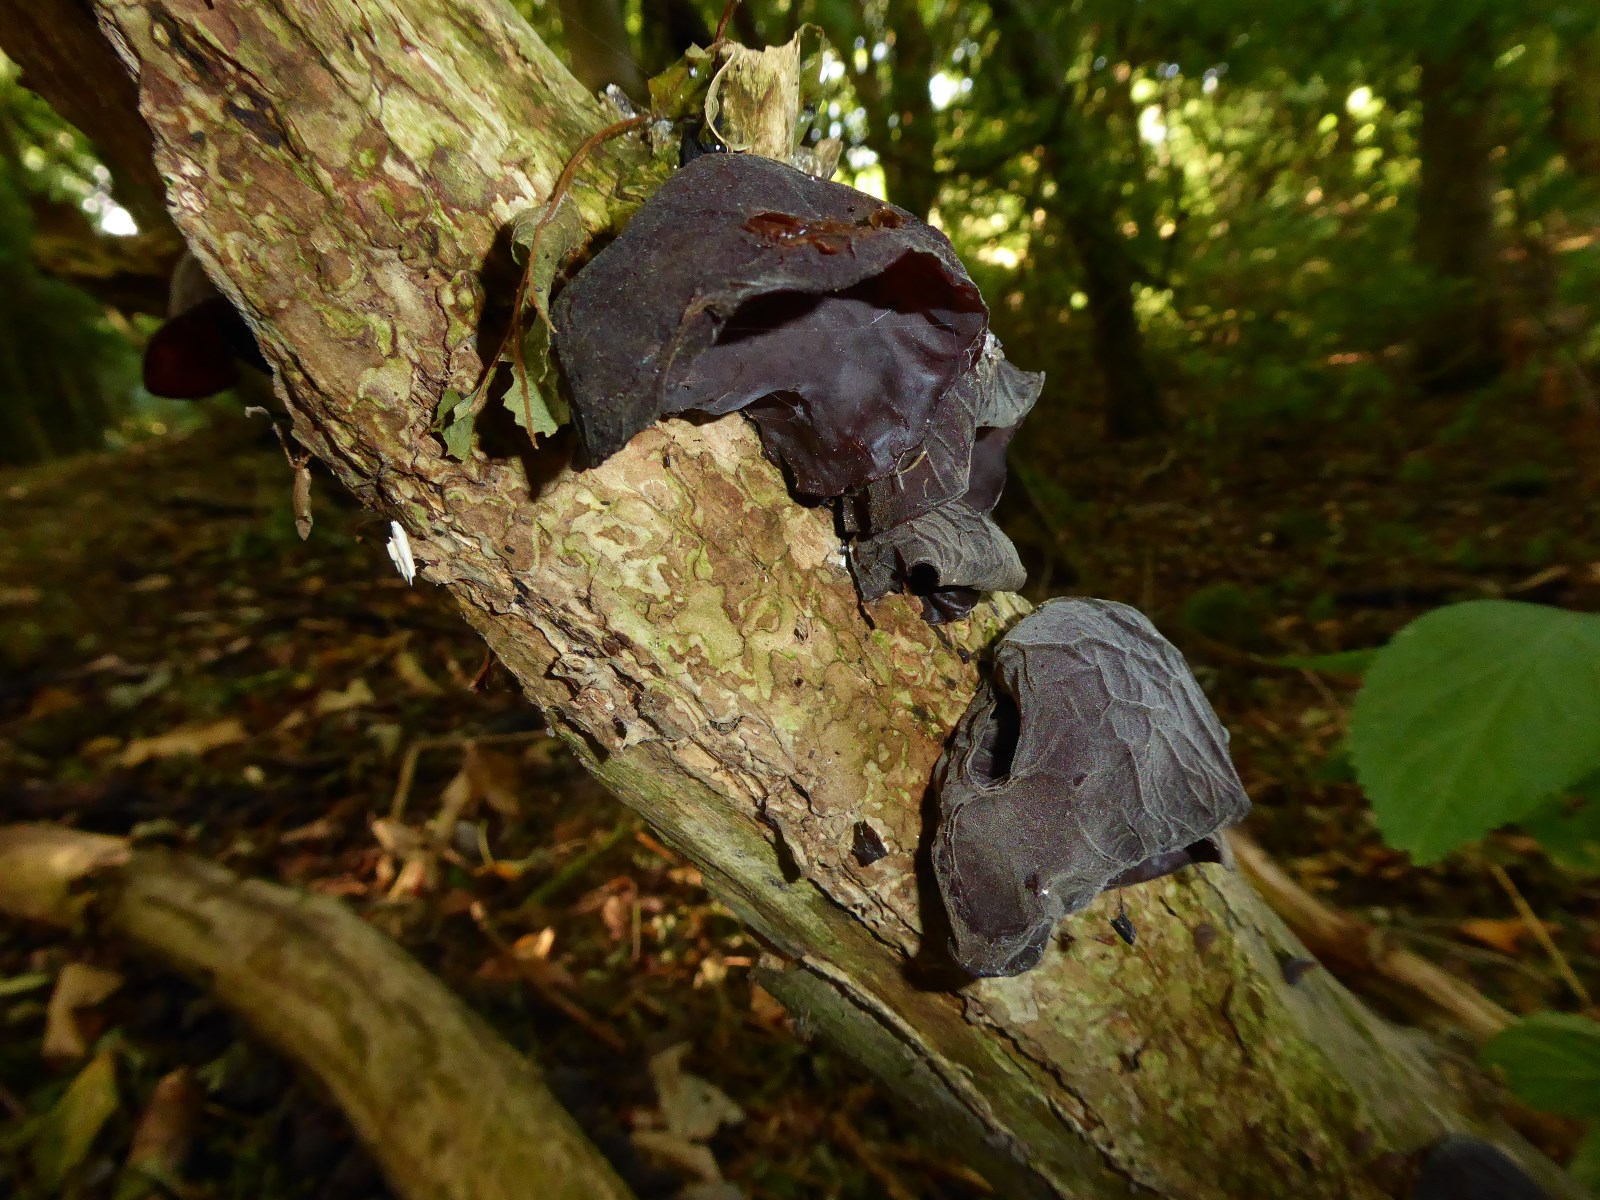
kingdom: Fungi
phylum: Basidiomycota
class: Agaricomycetes
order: Auriculariales
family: Auriculariaceae
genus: Auricularia
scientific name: Auricularia auricula-judae
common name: almindelig judasøre
